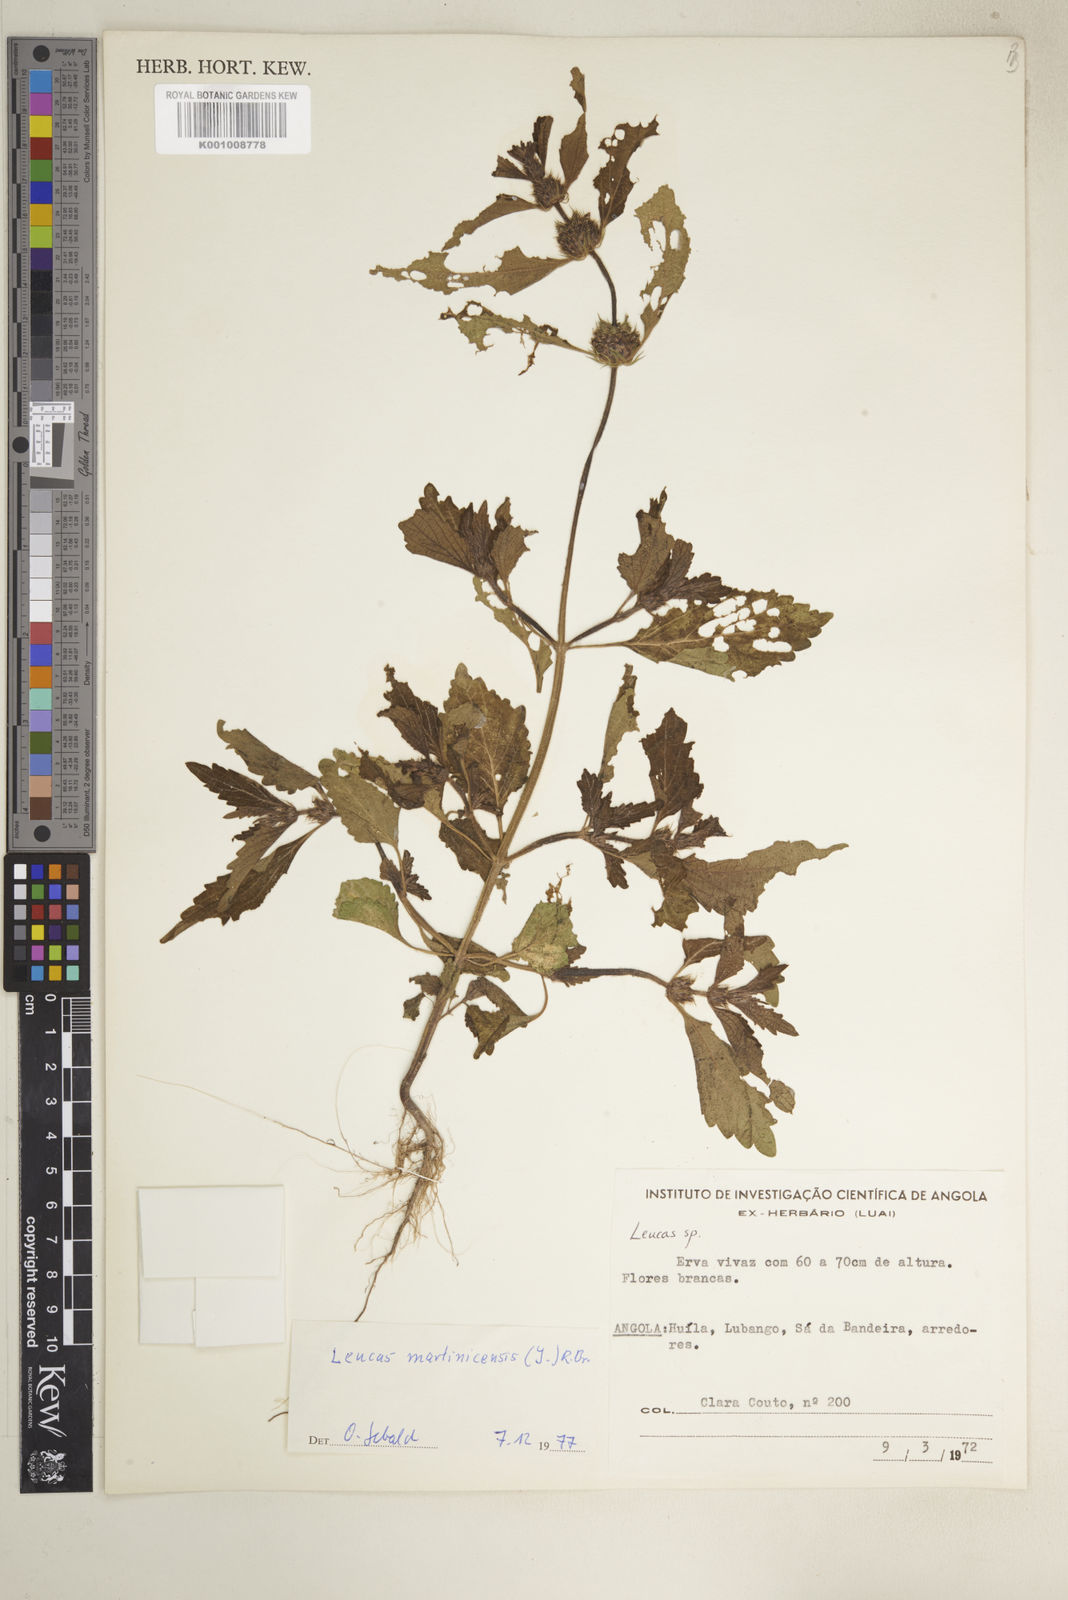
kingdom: Plantae
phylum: Tracheophyta
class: Magnoliopsida
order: Lamiales
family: Lamiaceae
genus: Leucas
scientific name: Leucas martinicensis
